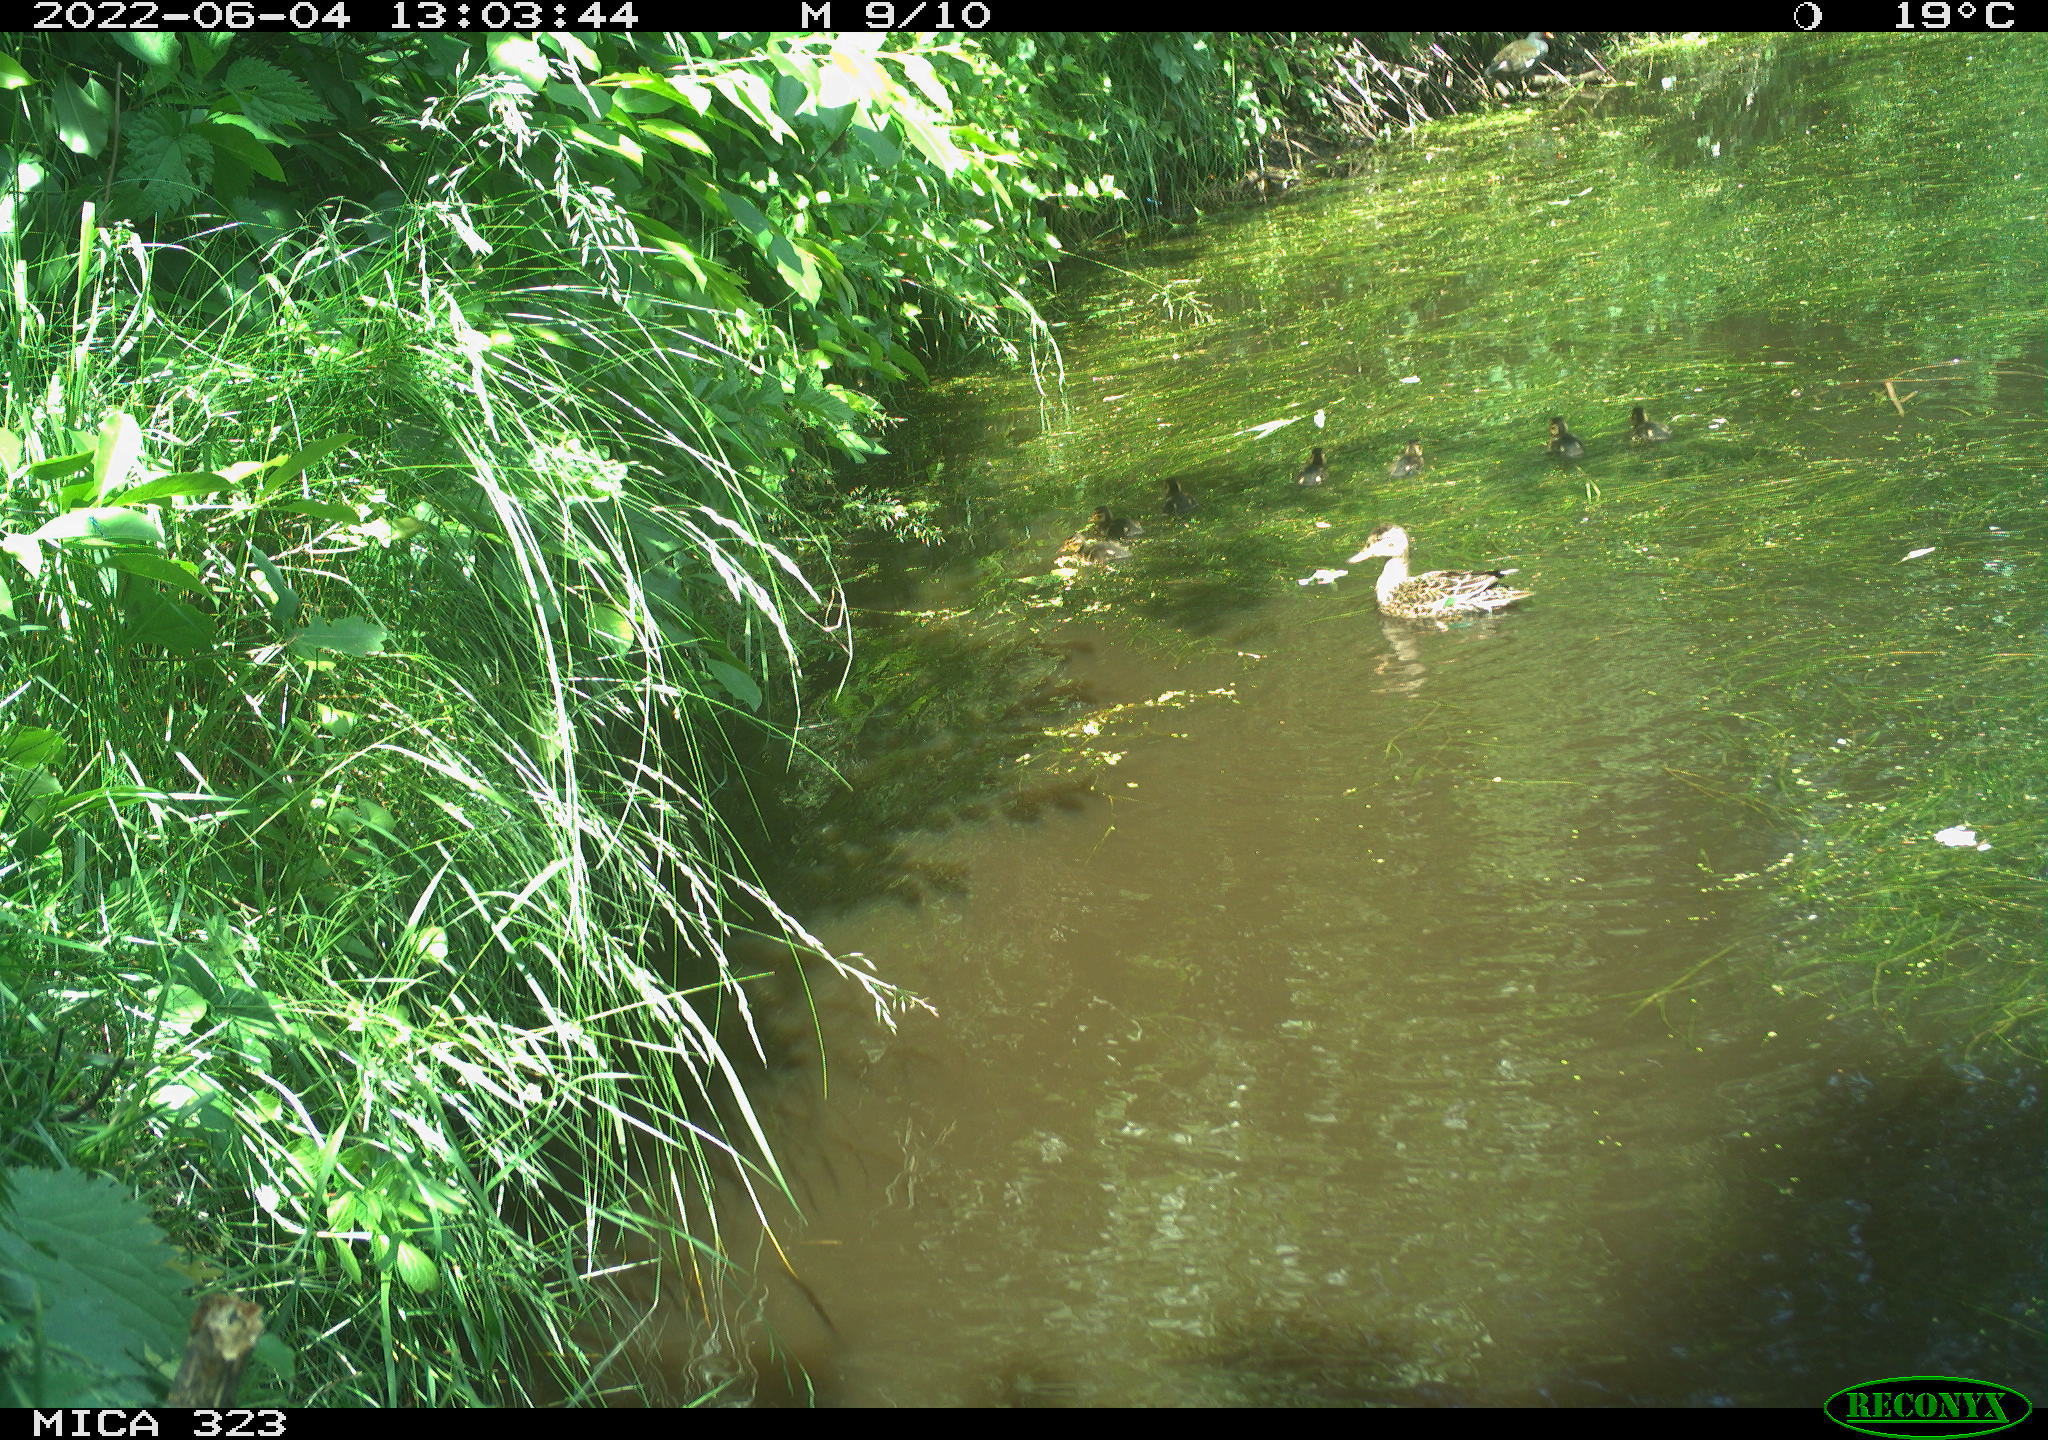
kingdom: Animalia
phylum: Chordata
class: Aves
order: Anseriformes
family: Anatidae
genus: Anas
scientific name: Anas platyrhynchos
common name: Mallard
